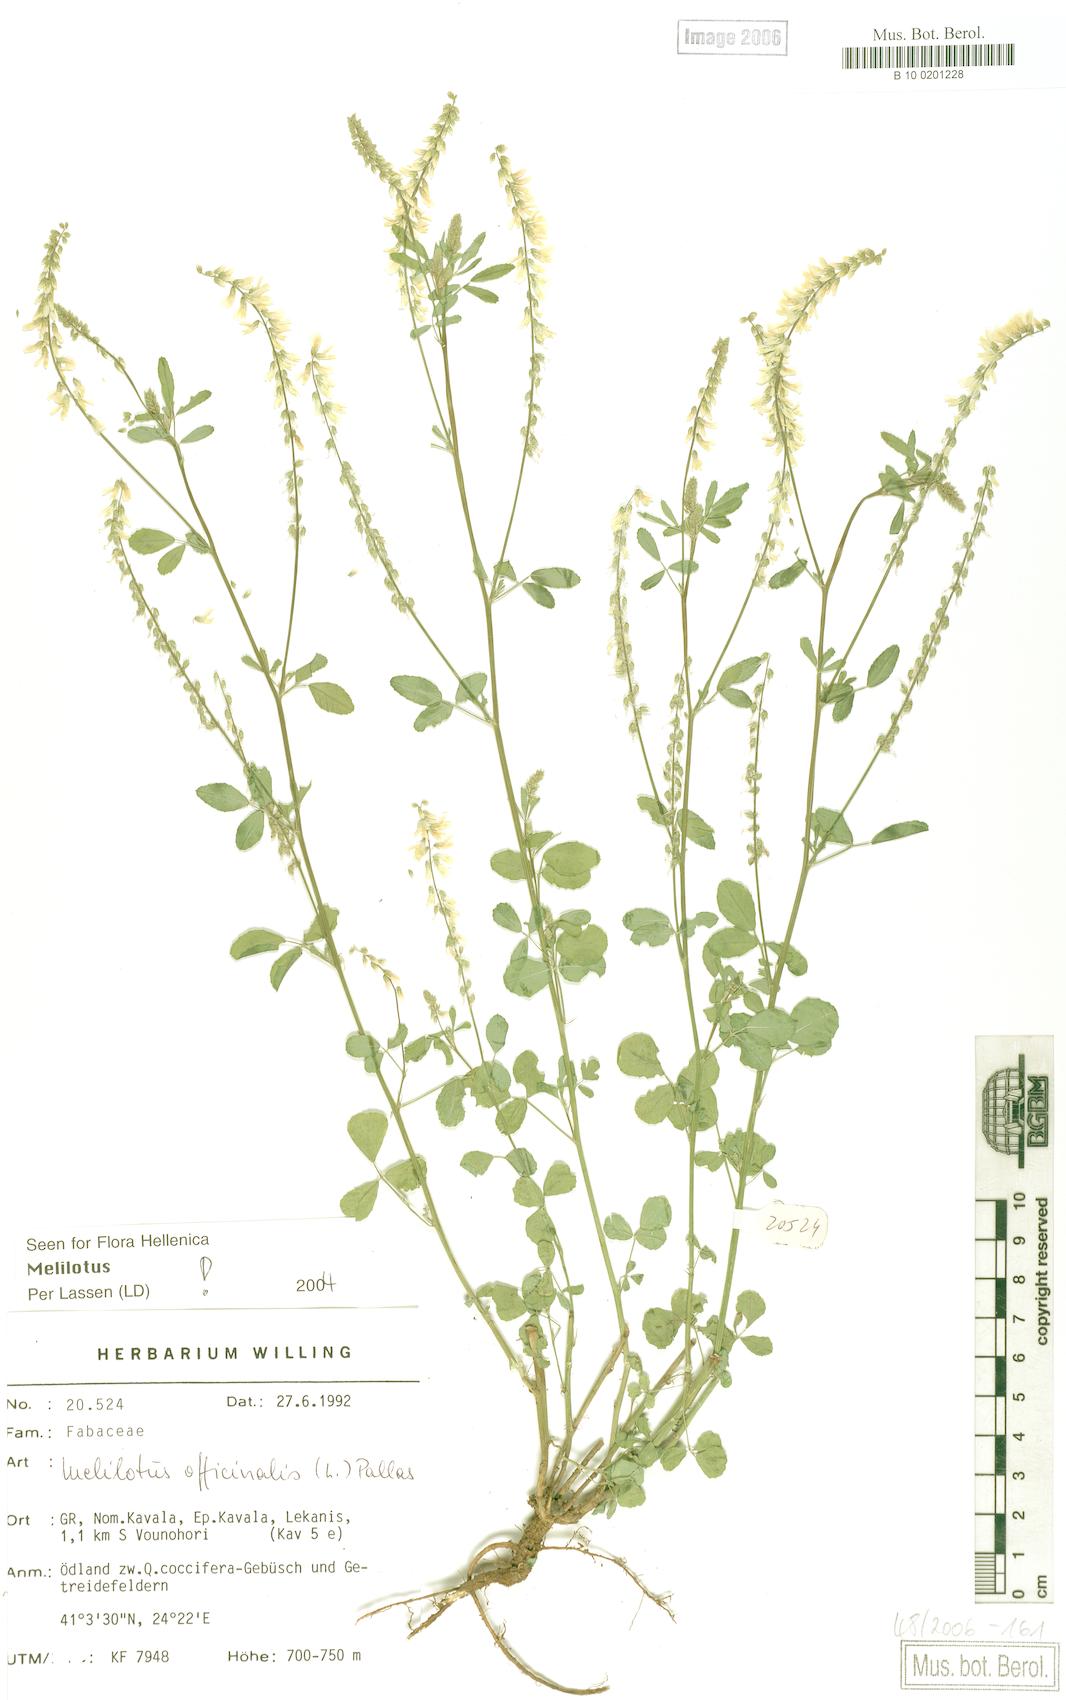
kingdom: Plantae
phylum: Tracheophyta
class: Magnoliopsida
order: Fabales
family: Fabaceae
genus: Melilotus
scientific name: Melilotus officinalis
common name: Sweetclover
